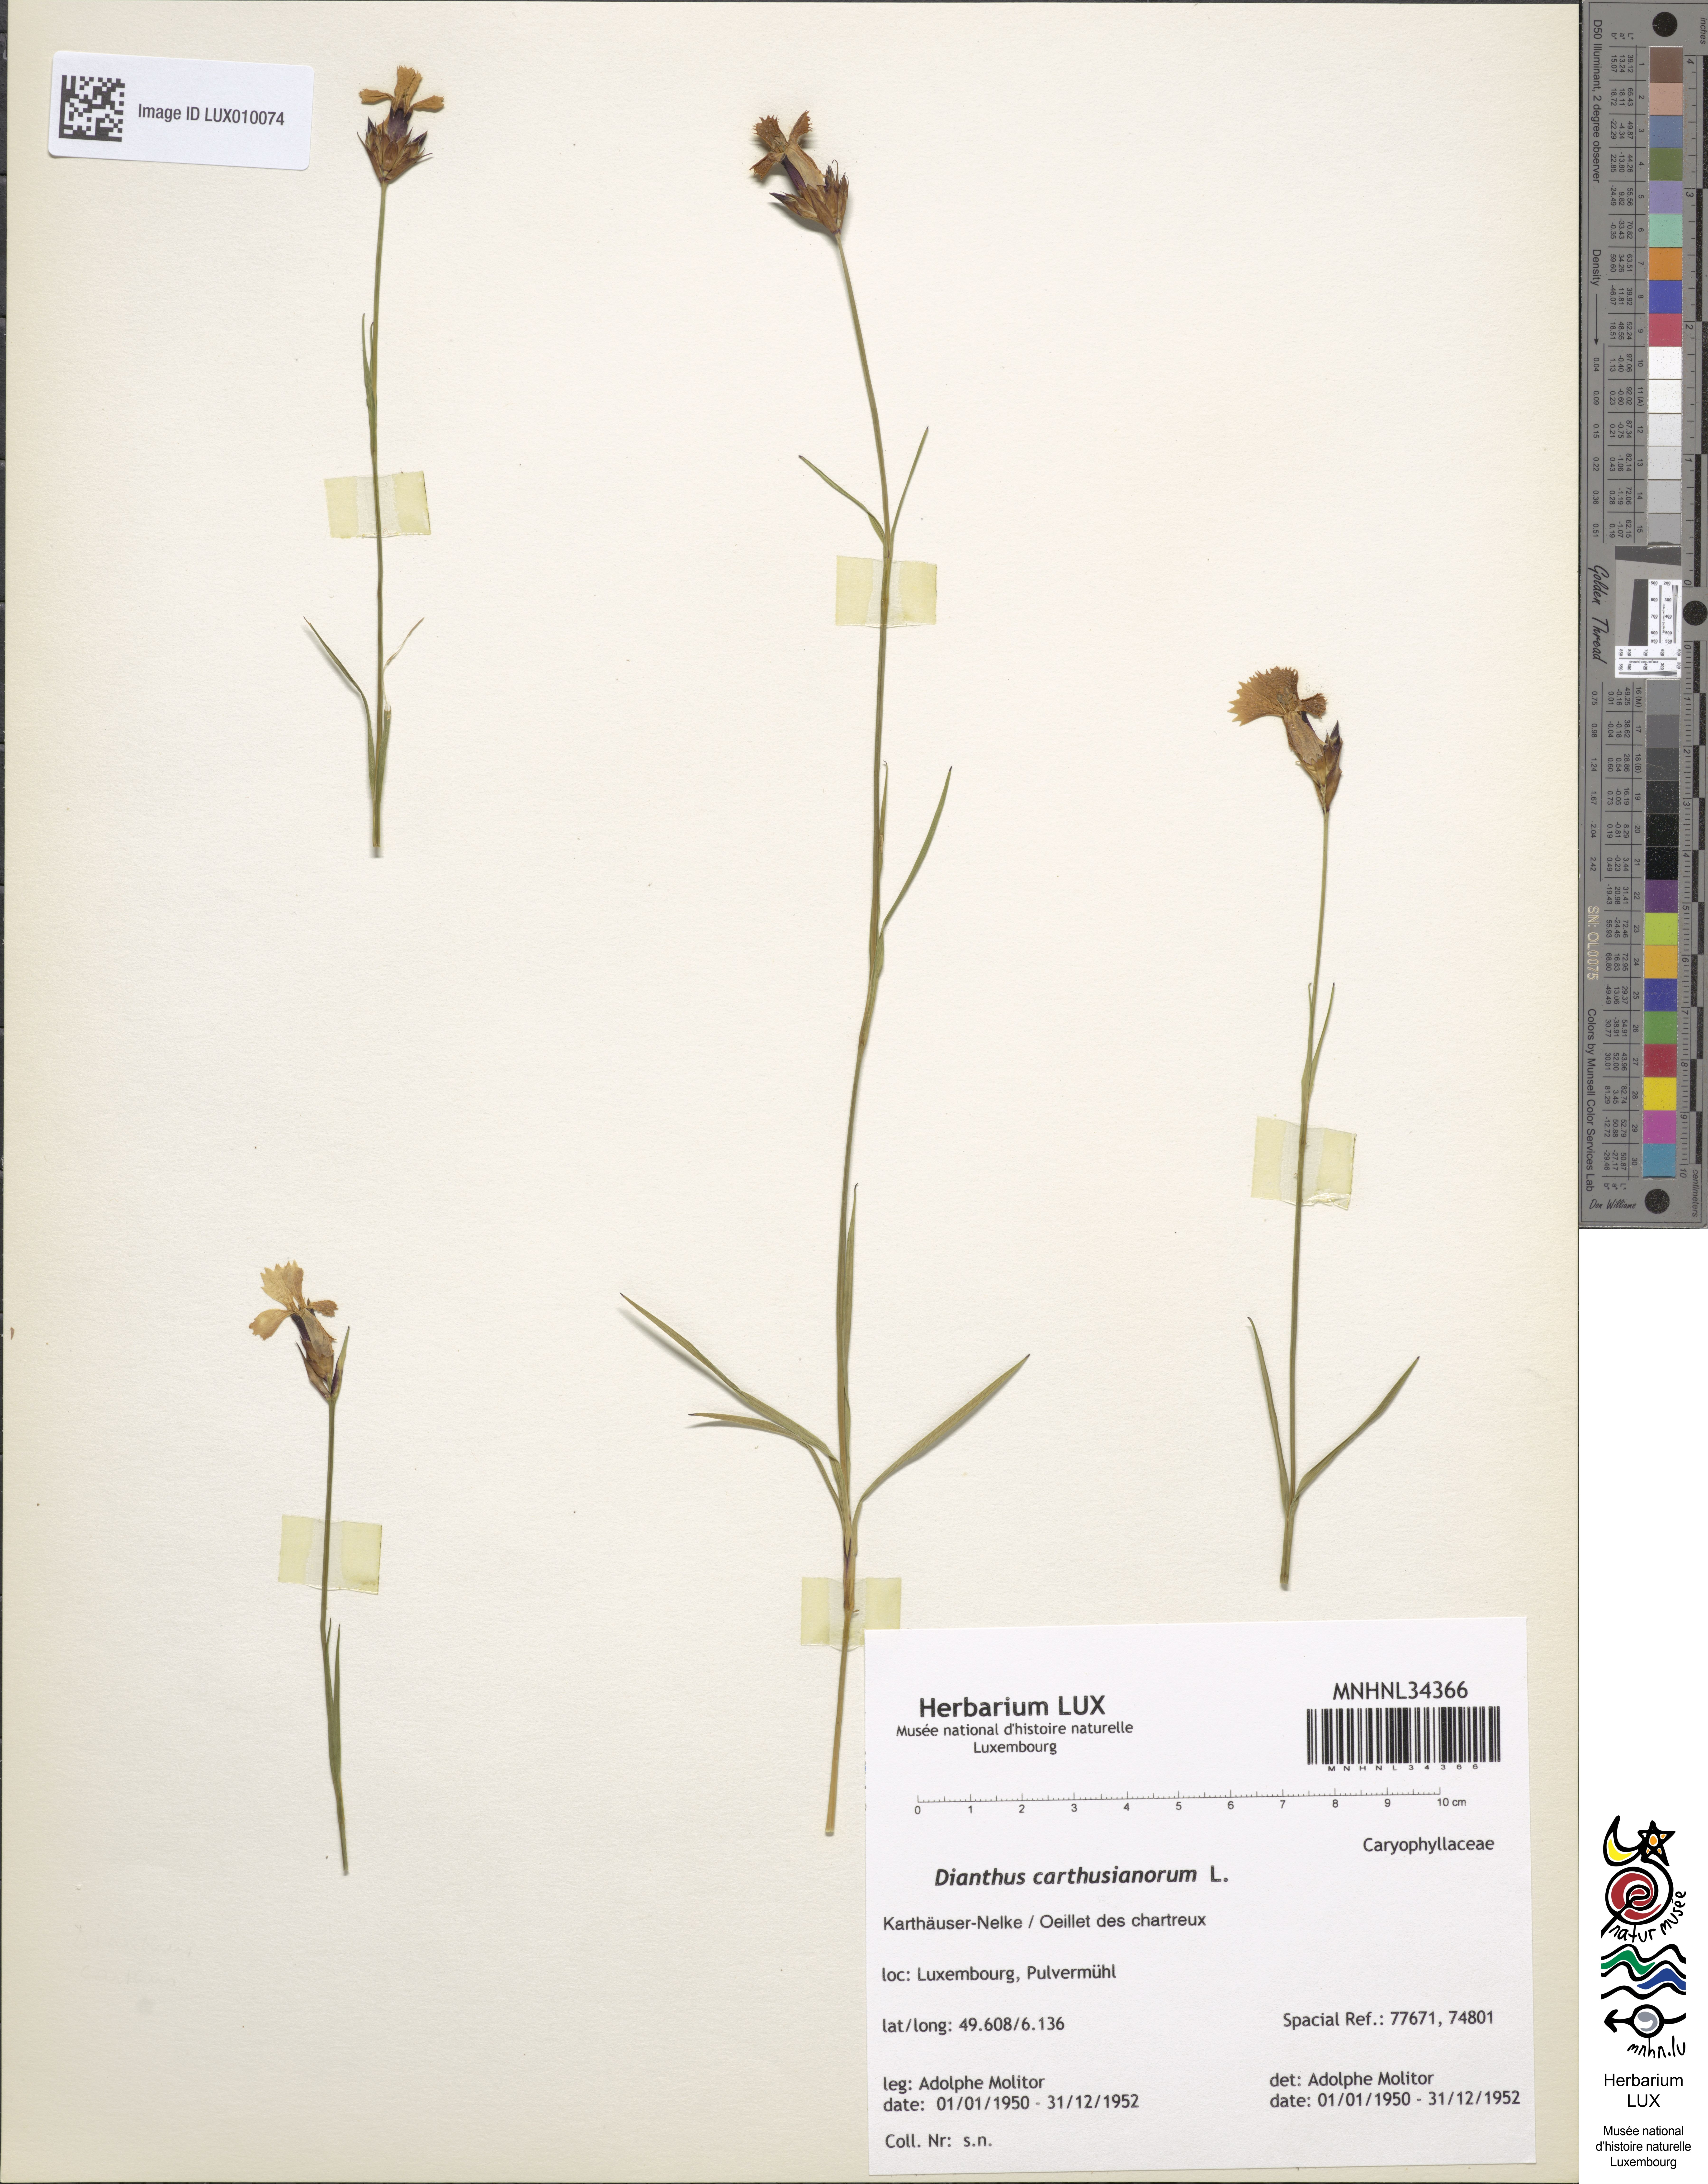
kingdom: Plantae
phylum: Tracheophyta
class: Magnoliopsida
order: Caryophyllales
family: Caryophyllaceae
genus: Dianthus
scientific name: Dianthus carthusianorum
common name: Carthusian pink
